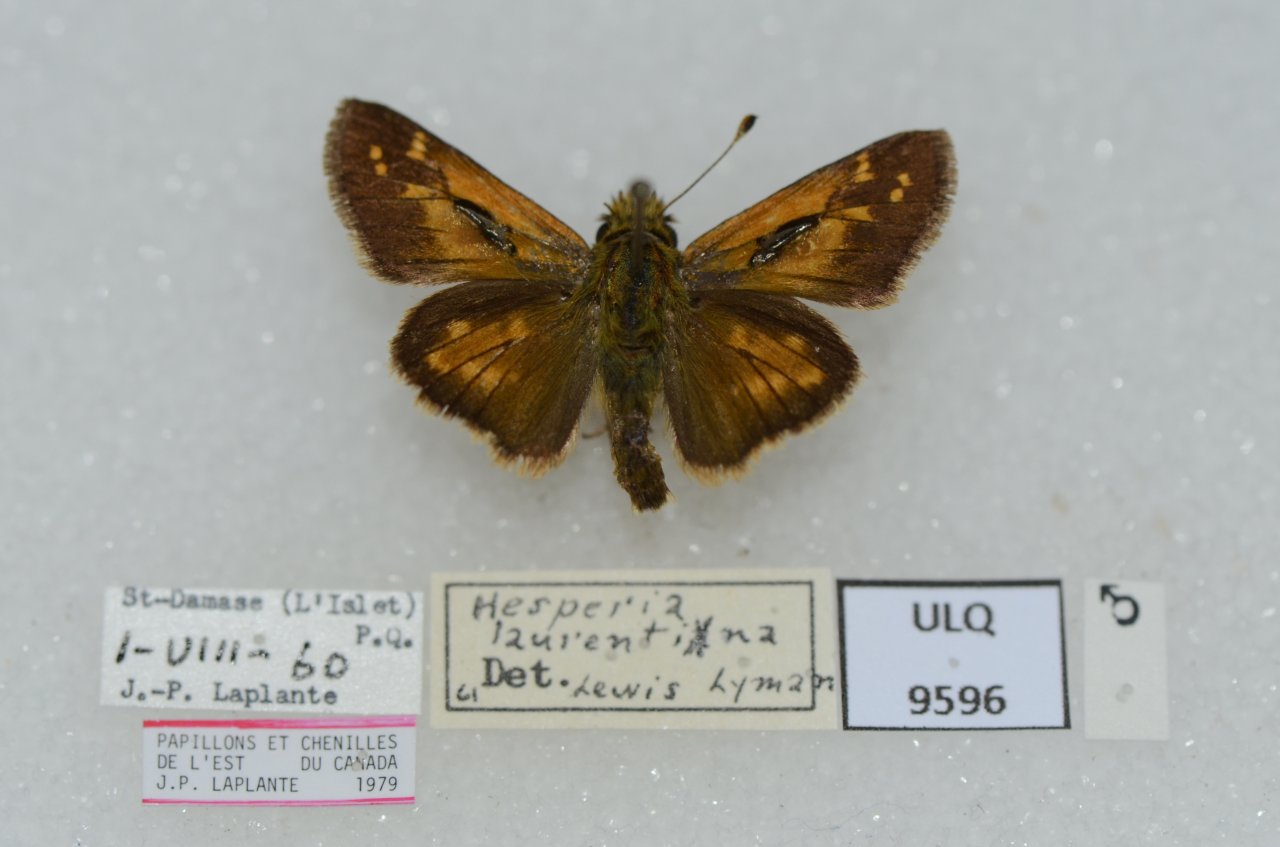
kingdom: Animalia
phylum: Arthropoda
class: Insecta
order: Lepidoptera
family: Hesperiidae
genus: Hesperia
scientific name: Hesperia comma
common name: Common Branded Skipper
